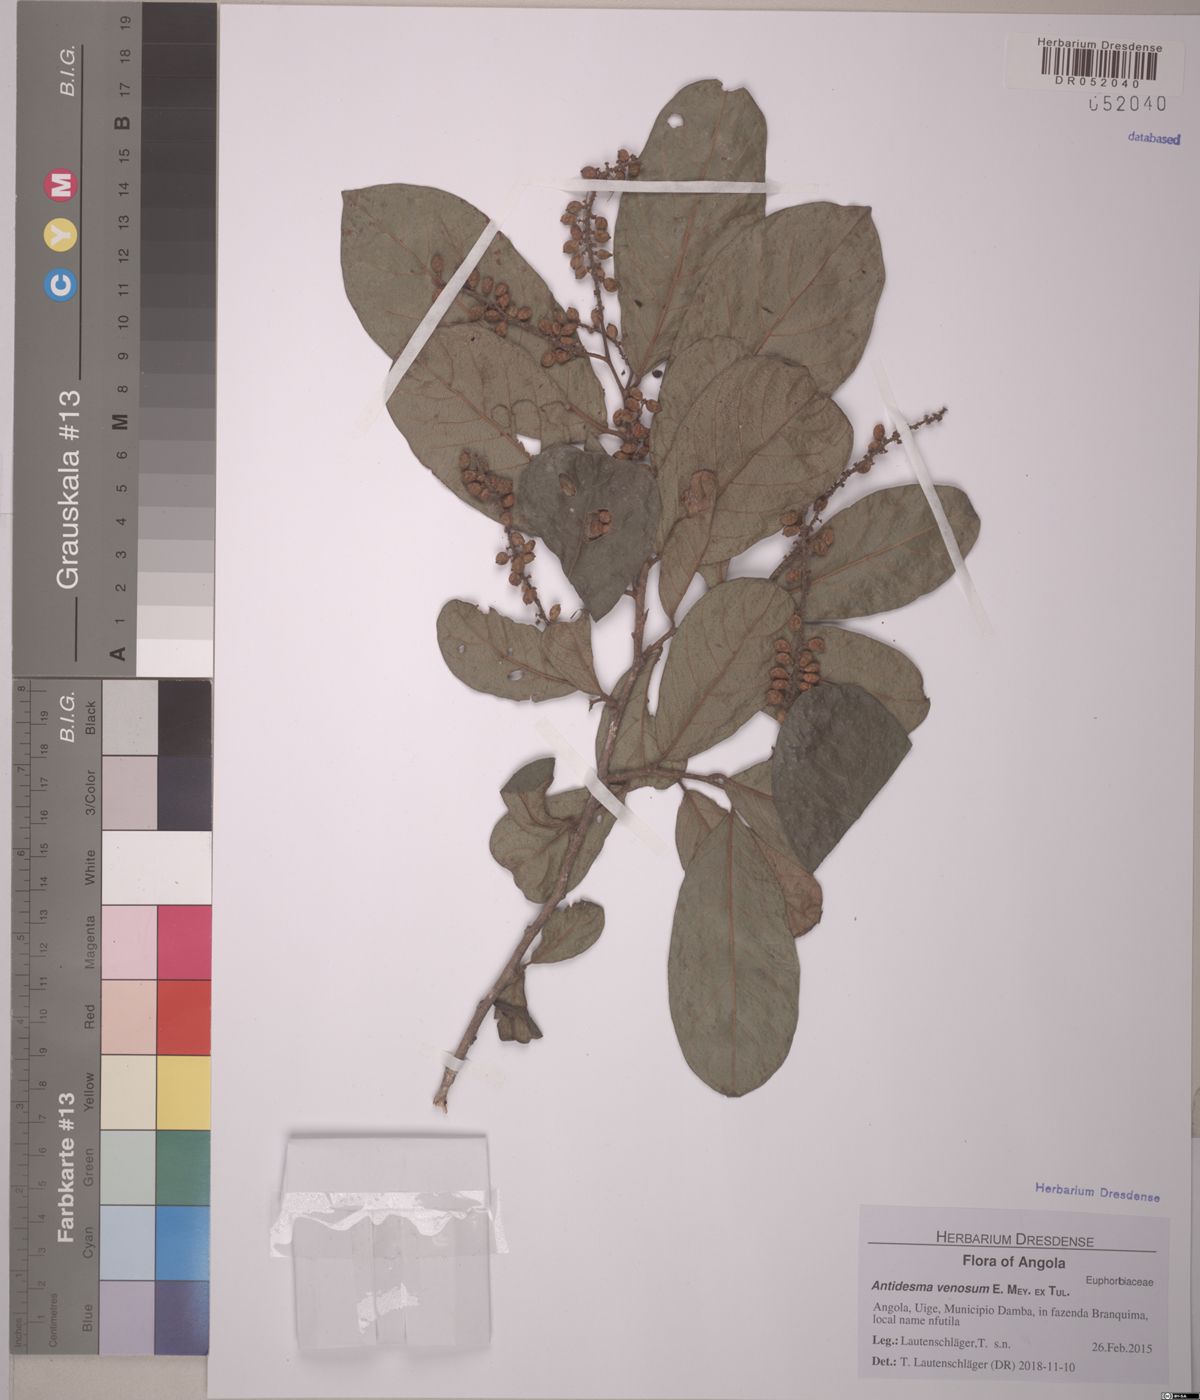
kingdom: Plantae
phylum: Tracheophyta
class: Magnoliopsida
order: Malpighiales
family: Phyllanthaceae
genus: Antidesma
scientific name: Antidesma venosum
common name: Tassel-berry
